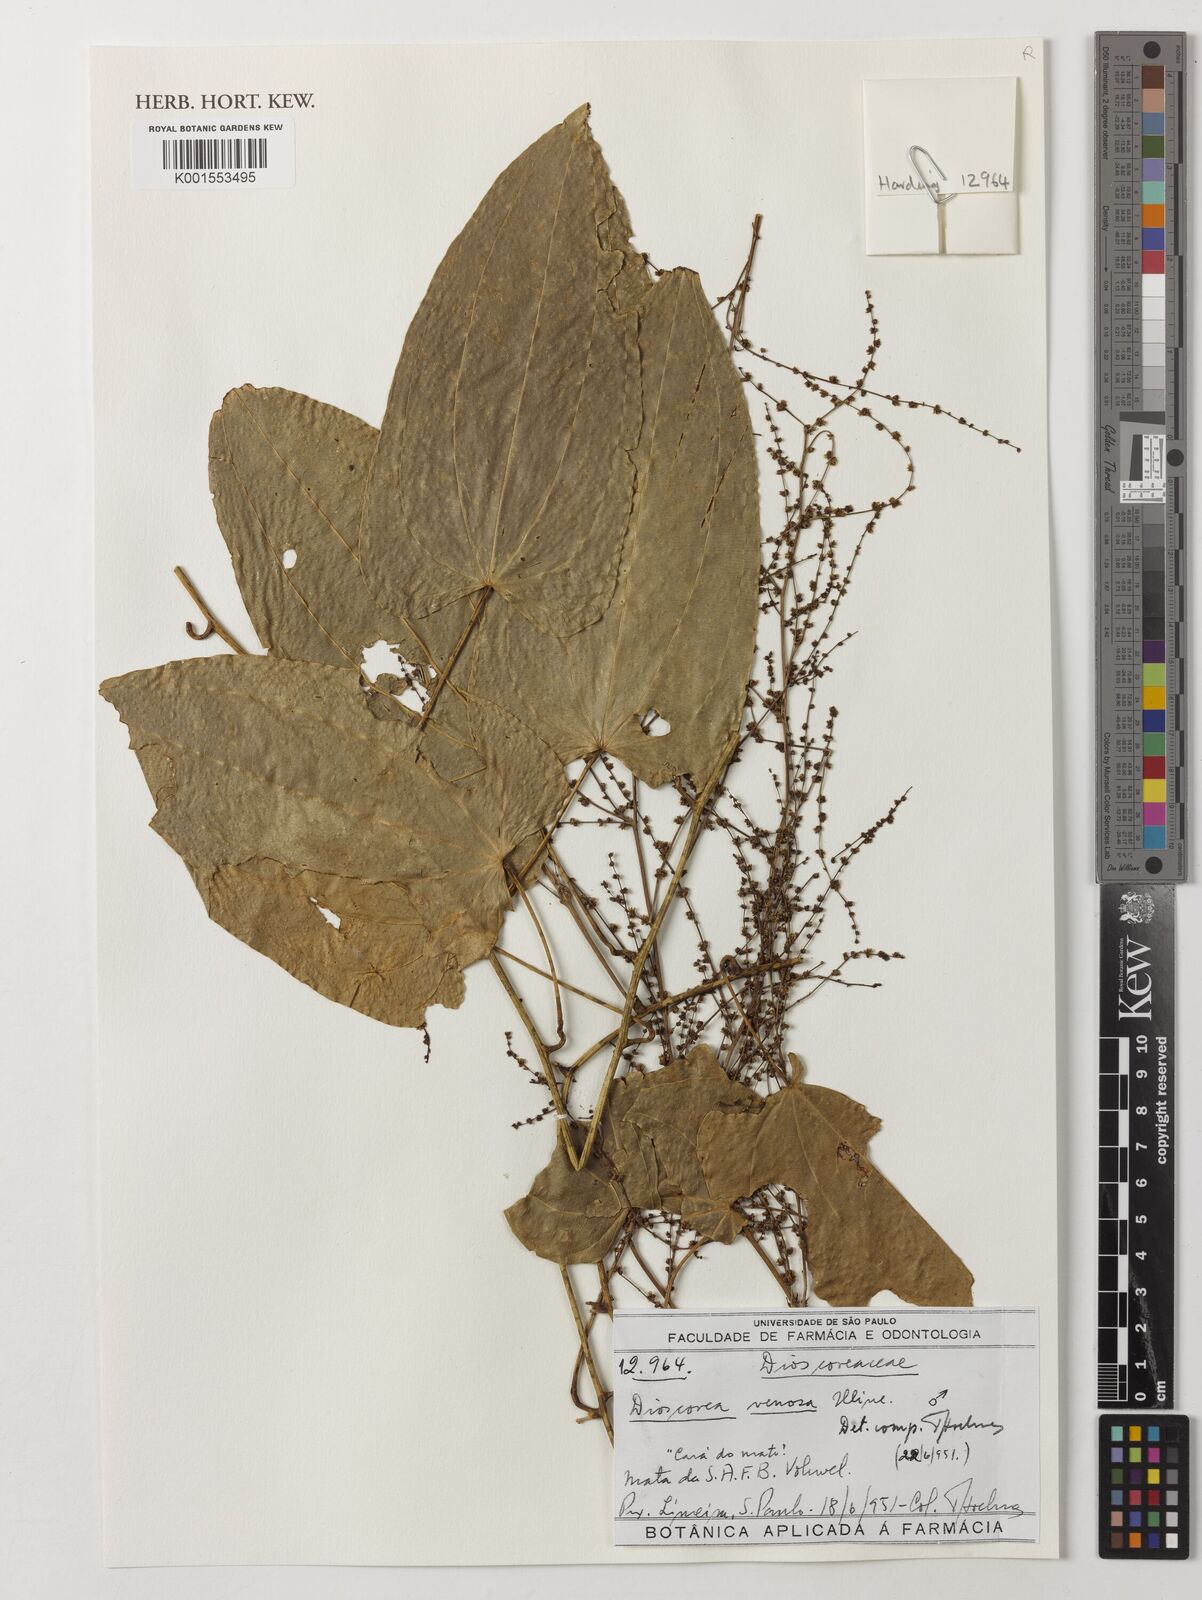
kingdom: Plantae
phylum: Tracheophyta
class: Liliopsida
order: Dioscoreales
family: Dioscoreaceae
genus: Dioscorea
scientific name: Dioscorea fodinarum
